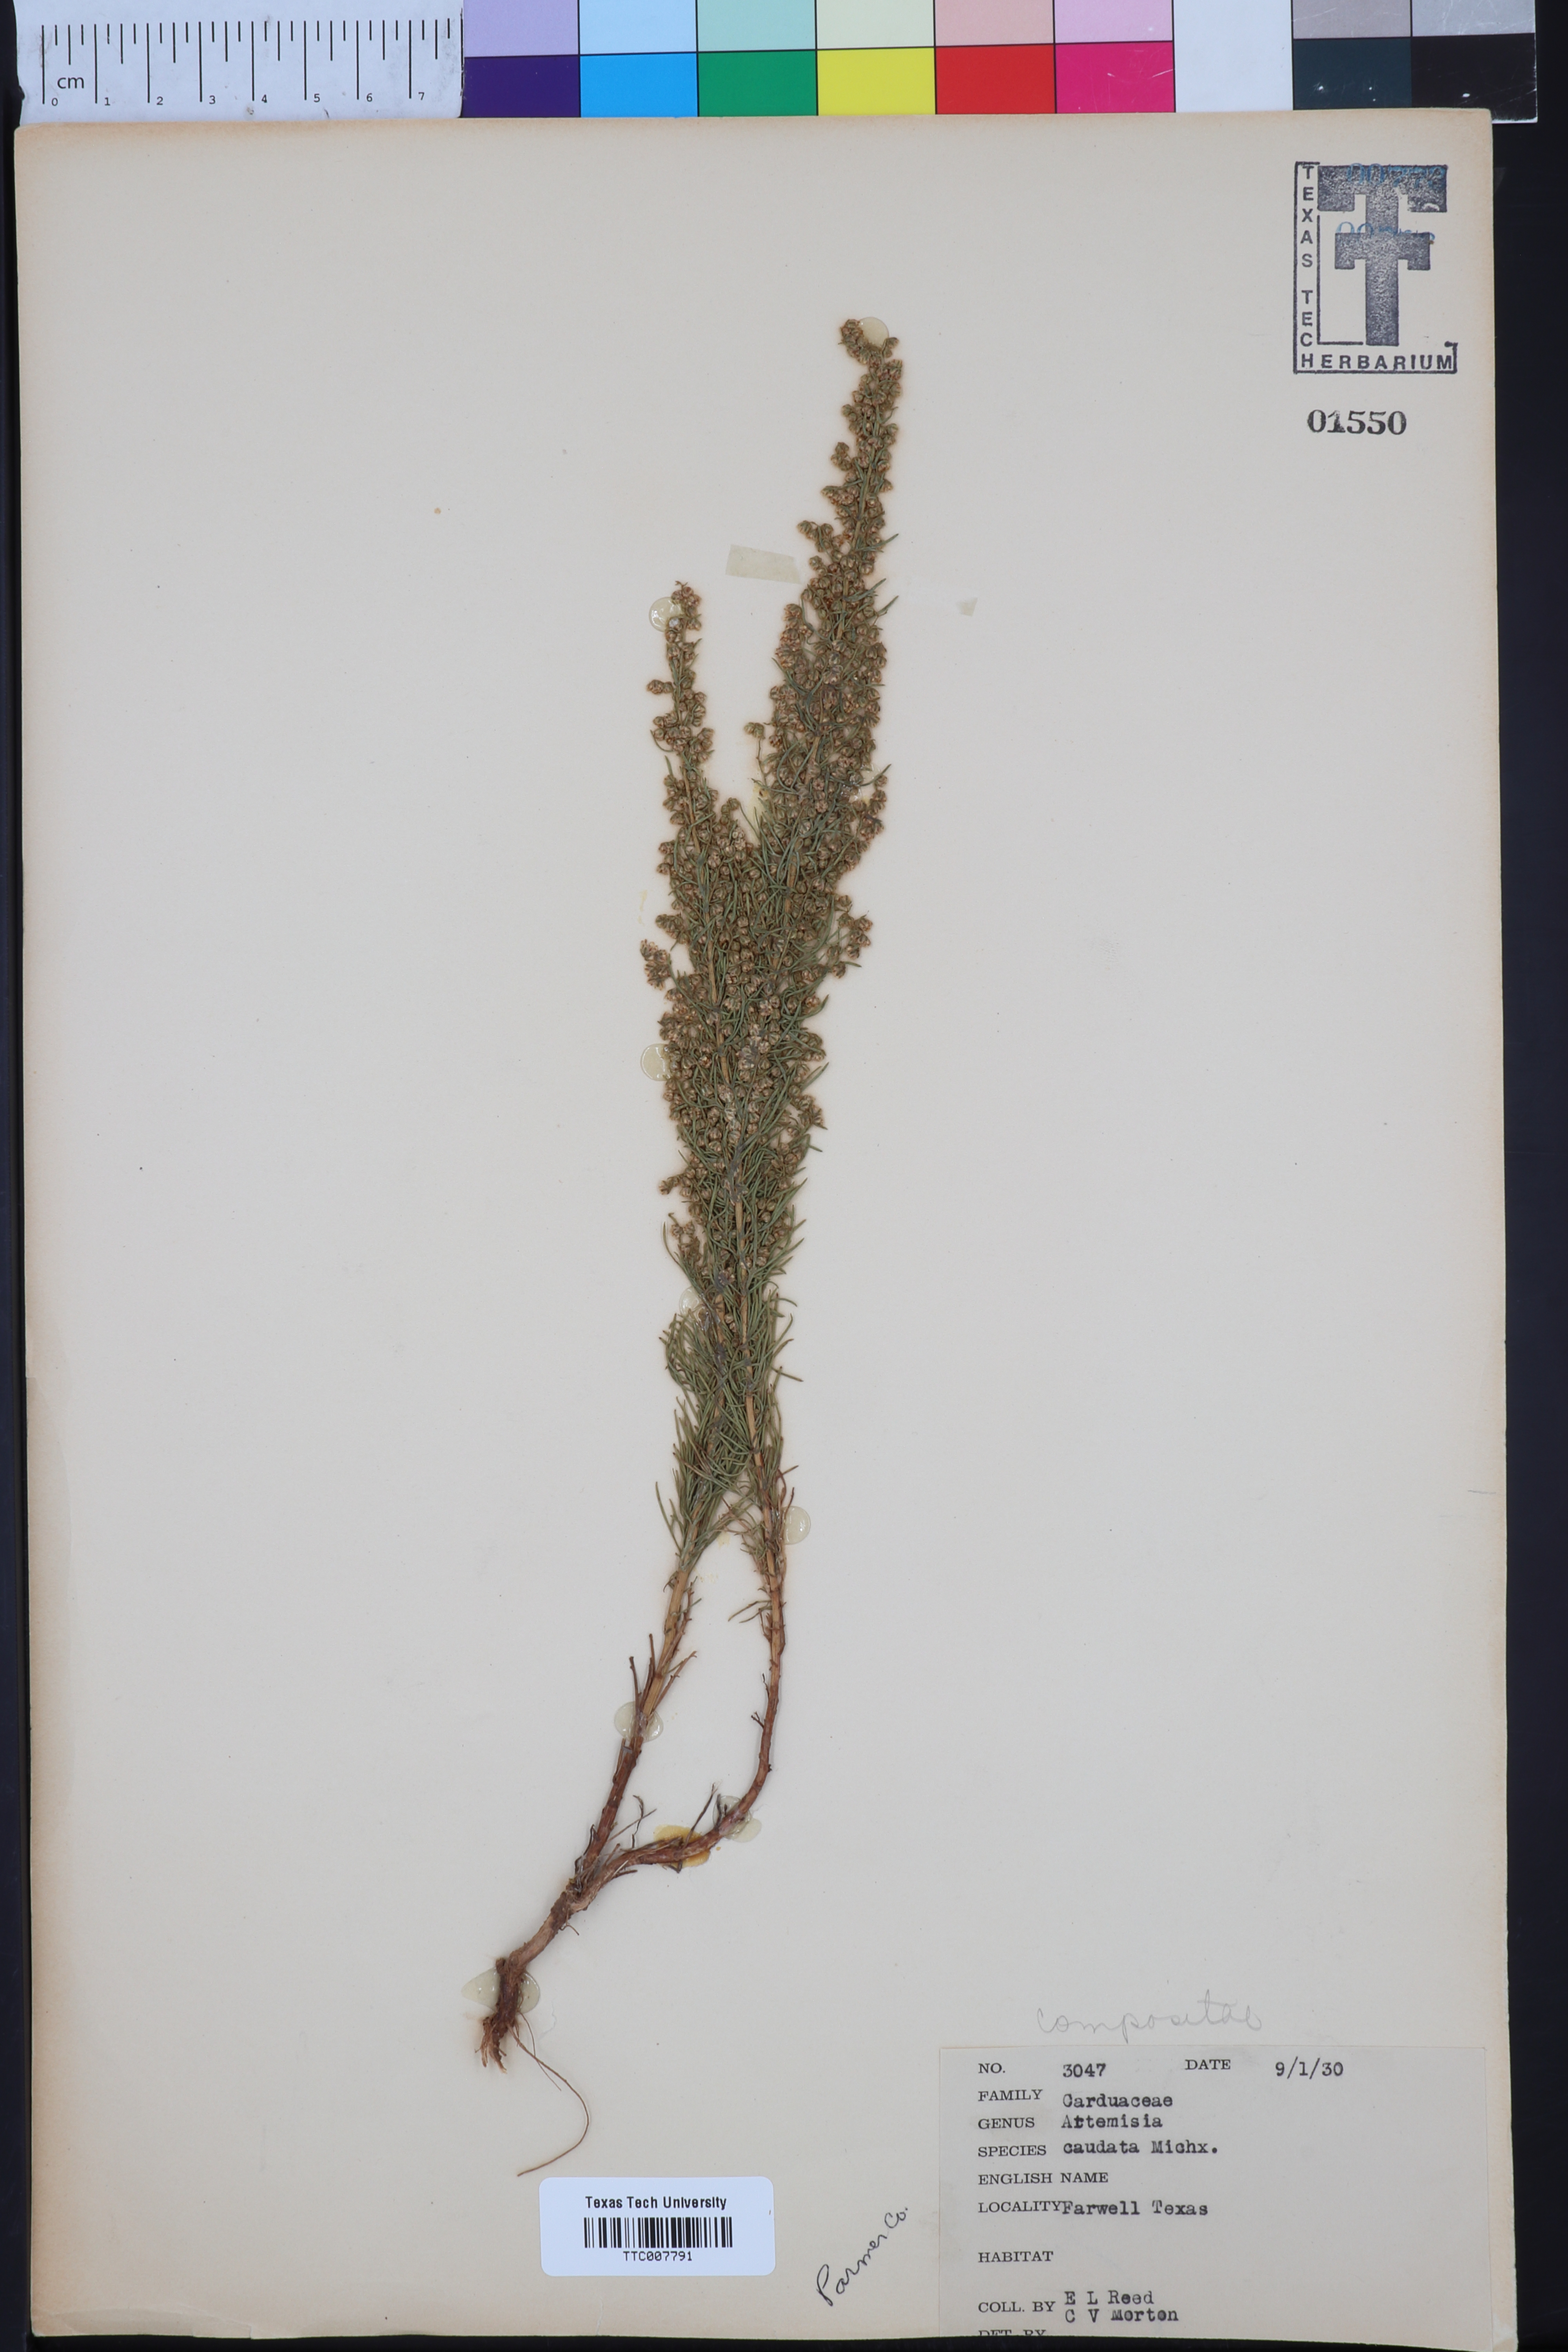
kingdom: Plantae
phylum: Tracheophyta
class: Magnoliopsida
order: Asterales
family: Asteraceae
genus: Artemisia
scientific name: Artemisia campestris
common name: Field wormwood
